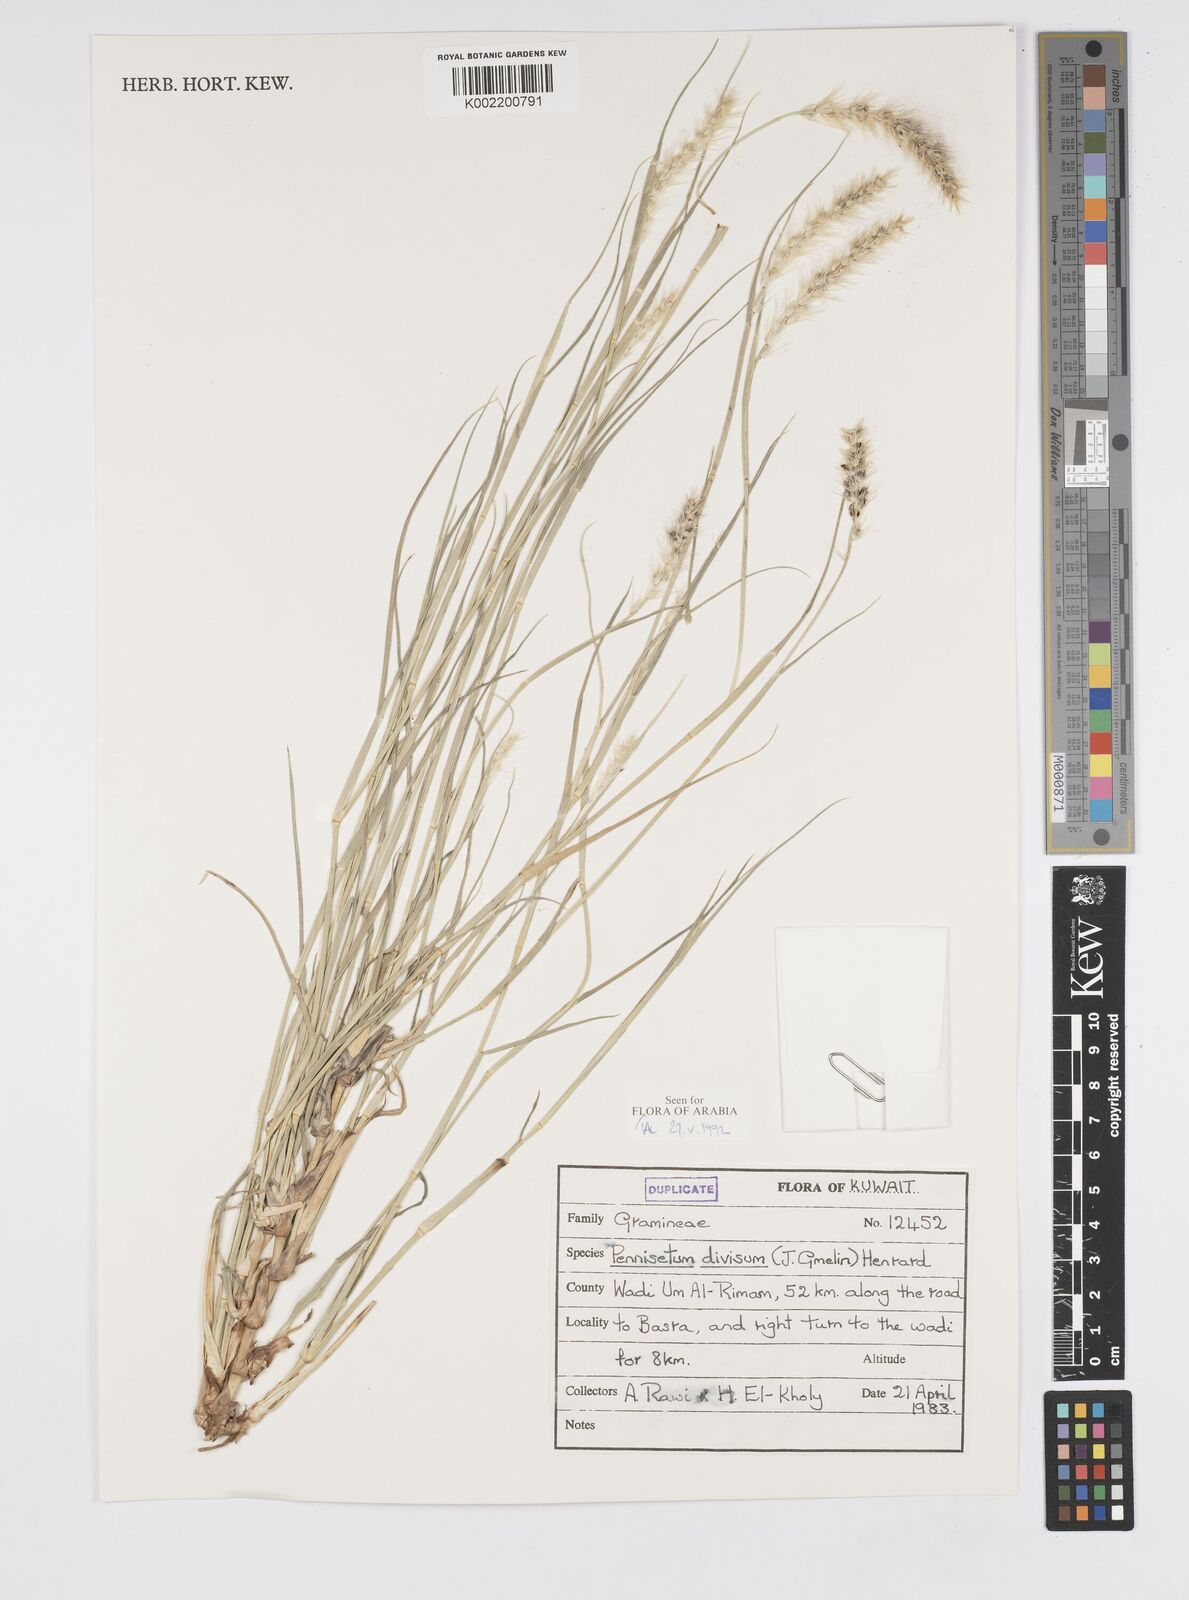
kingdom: Plantae
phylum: Tracheophyta
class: Liliopsida
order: Poales
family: Poaceae
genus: Cenchrus
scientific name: Cenchrus divisus
